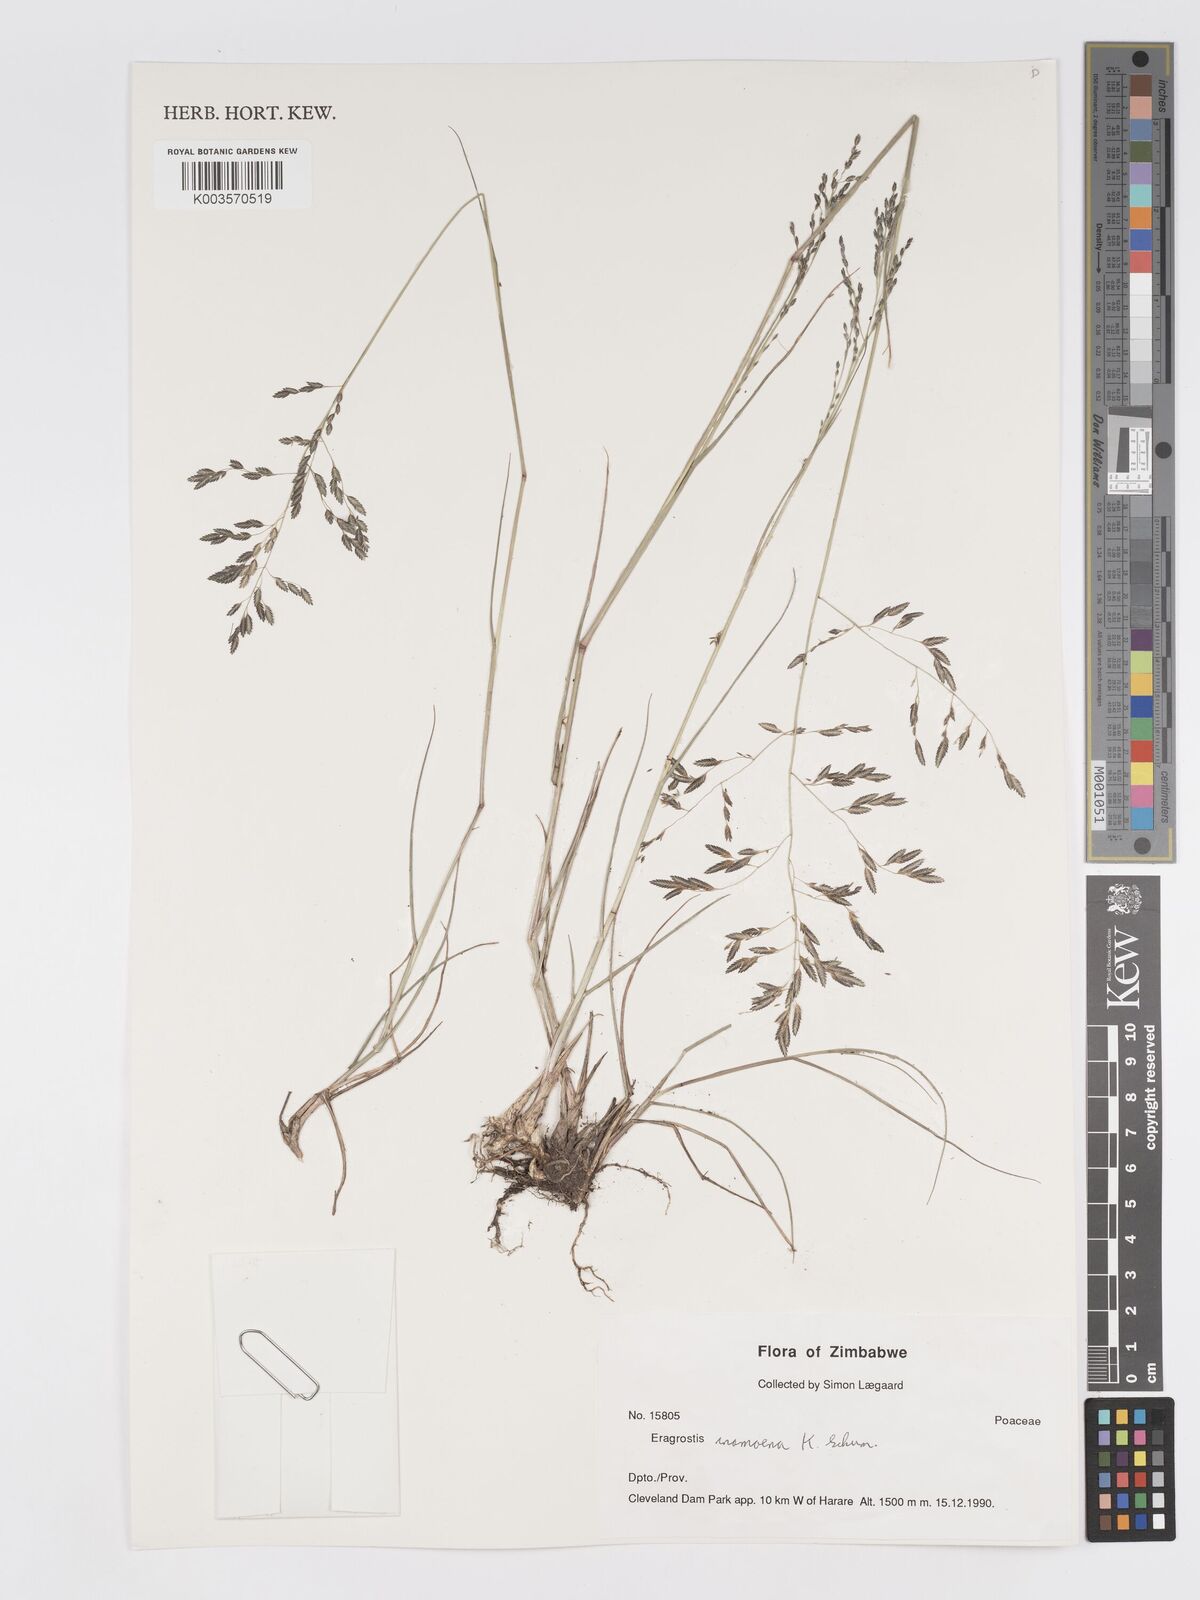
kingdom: Plantae
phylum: Tracheophyta
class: Liliopsida
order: Poales
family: Poaceae
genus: Eragrostis
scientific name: Eragrostis inamoena
